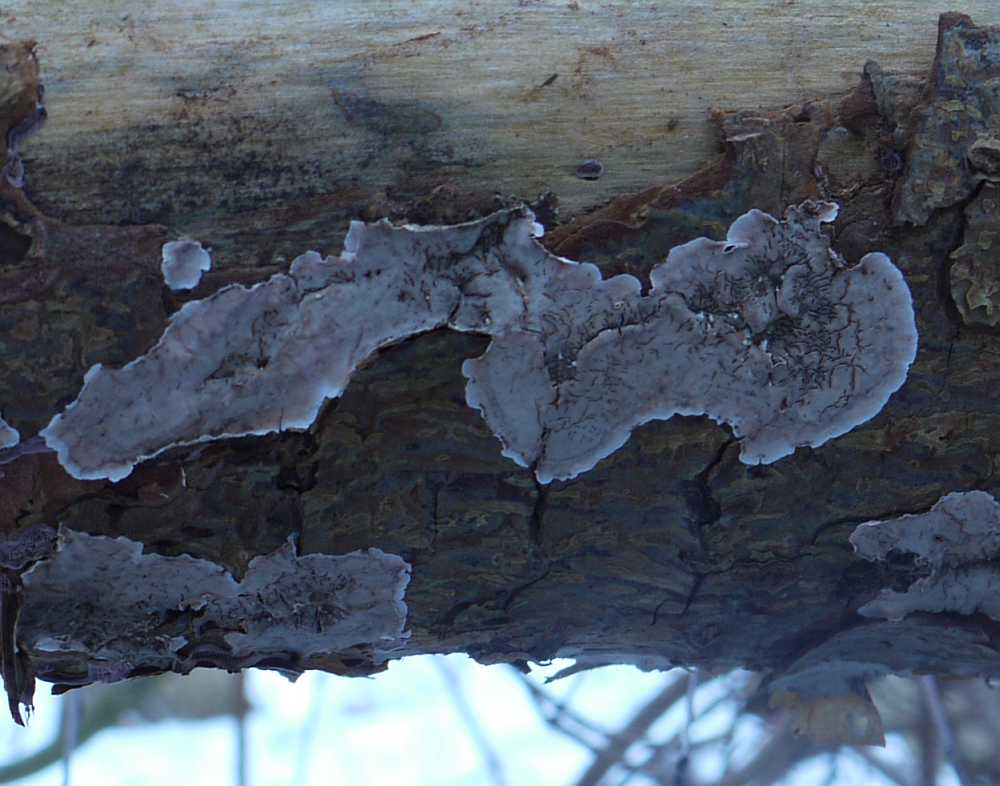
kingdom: Fungi
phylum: Basidiomycota
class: Agaricomycetes
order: Russulales
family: Stereaceae
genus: Stereum
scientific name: Stereum sanguinolentum
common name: blødende lædersvamp
